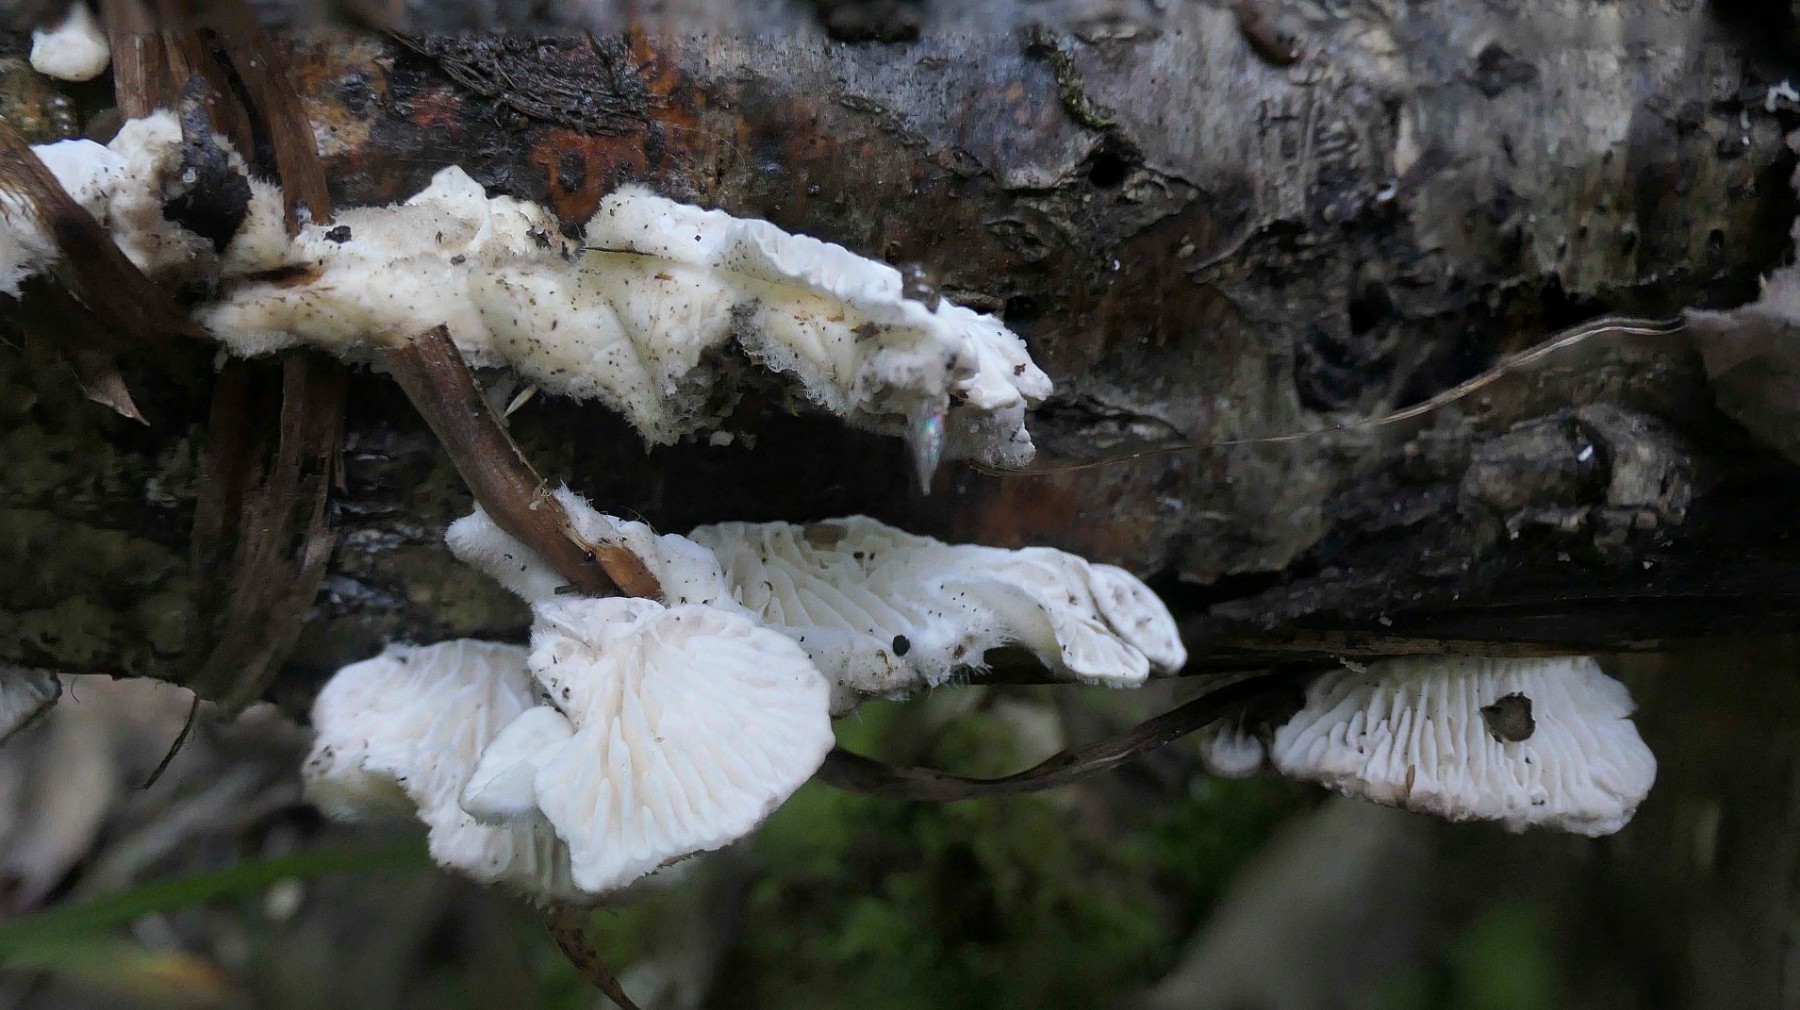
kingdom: Fungi
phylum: Basidiomycota
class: Agaricomycetes
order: Polyporales
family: Polyporaceae
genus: Lenzites
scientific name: Lenzites betulinus
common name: birke-læderporesvamp
